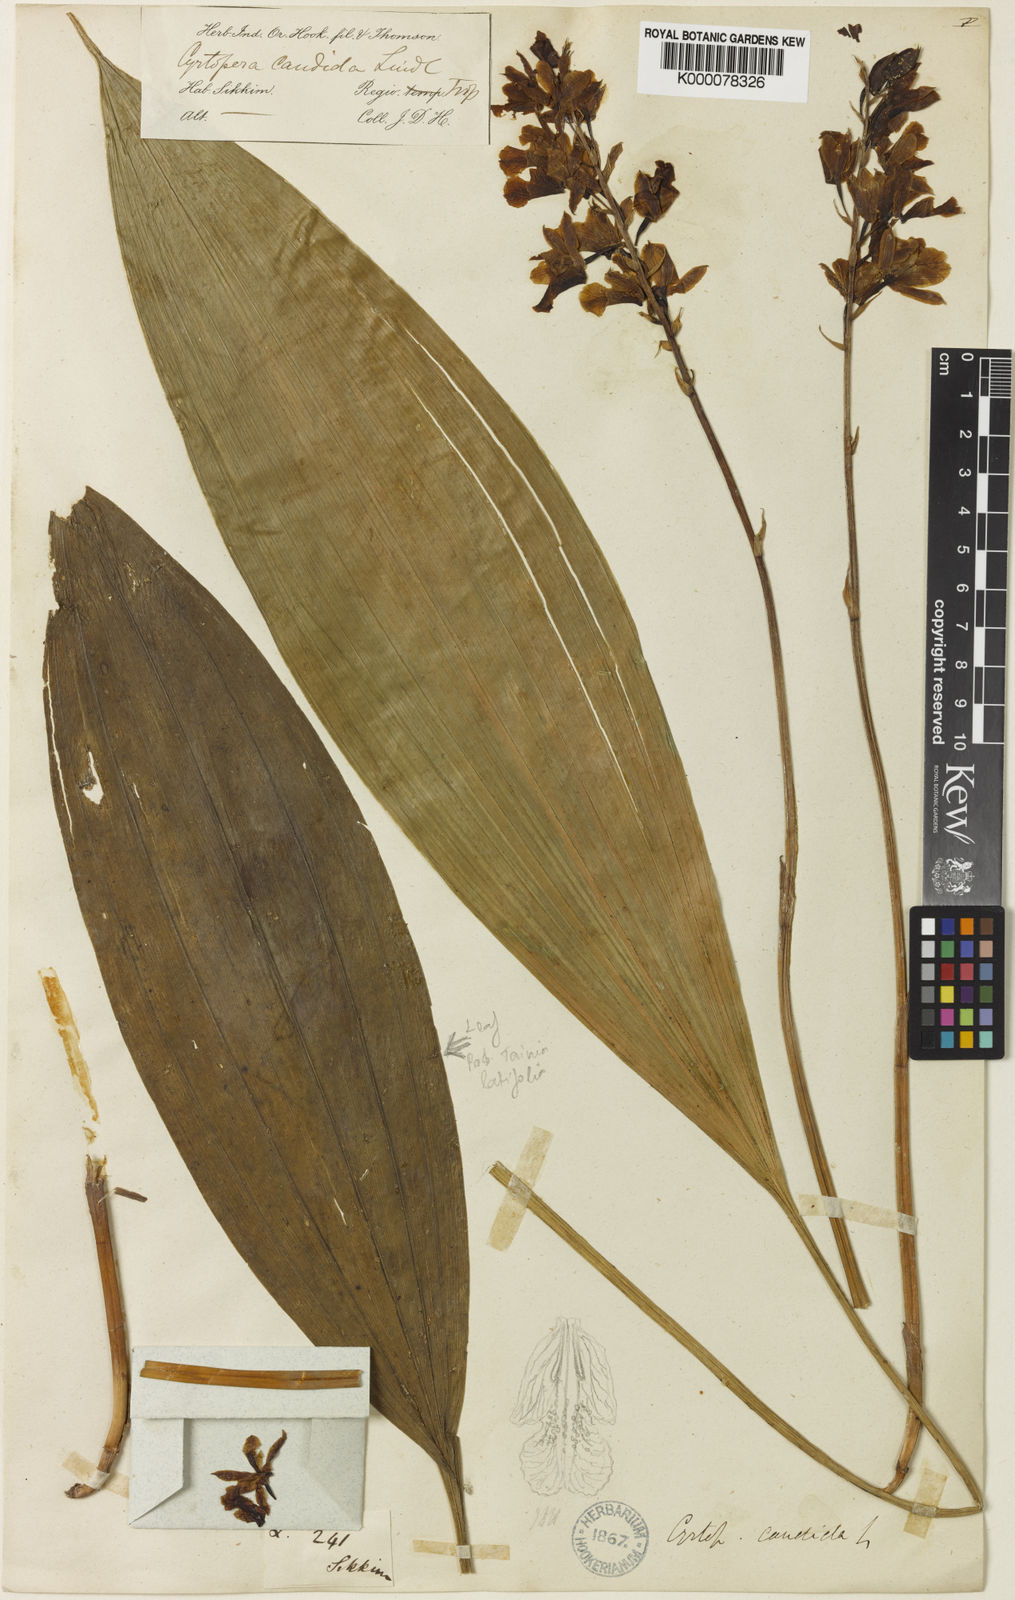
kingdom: Plantae
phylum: Tracheophyta
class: Liliopsida
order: Asparagales
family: Orchidaceae
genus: Eulophia
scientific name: Eulophia bicallosa
